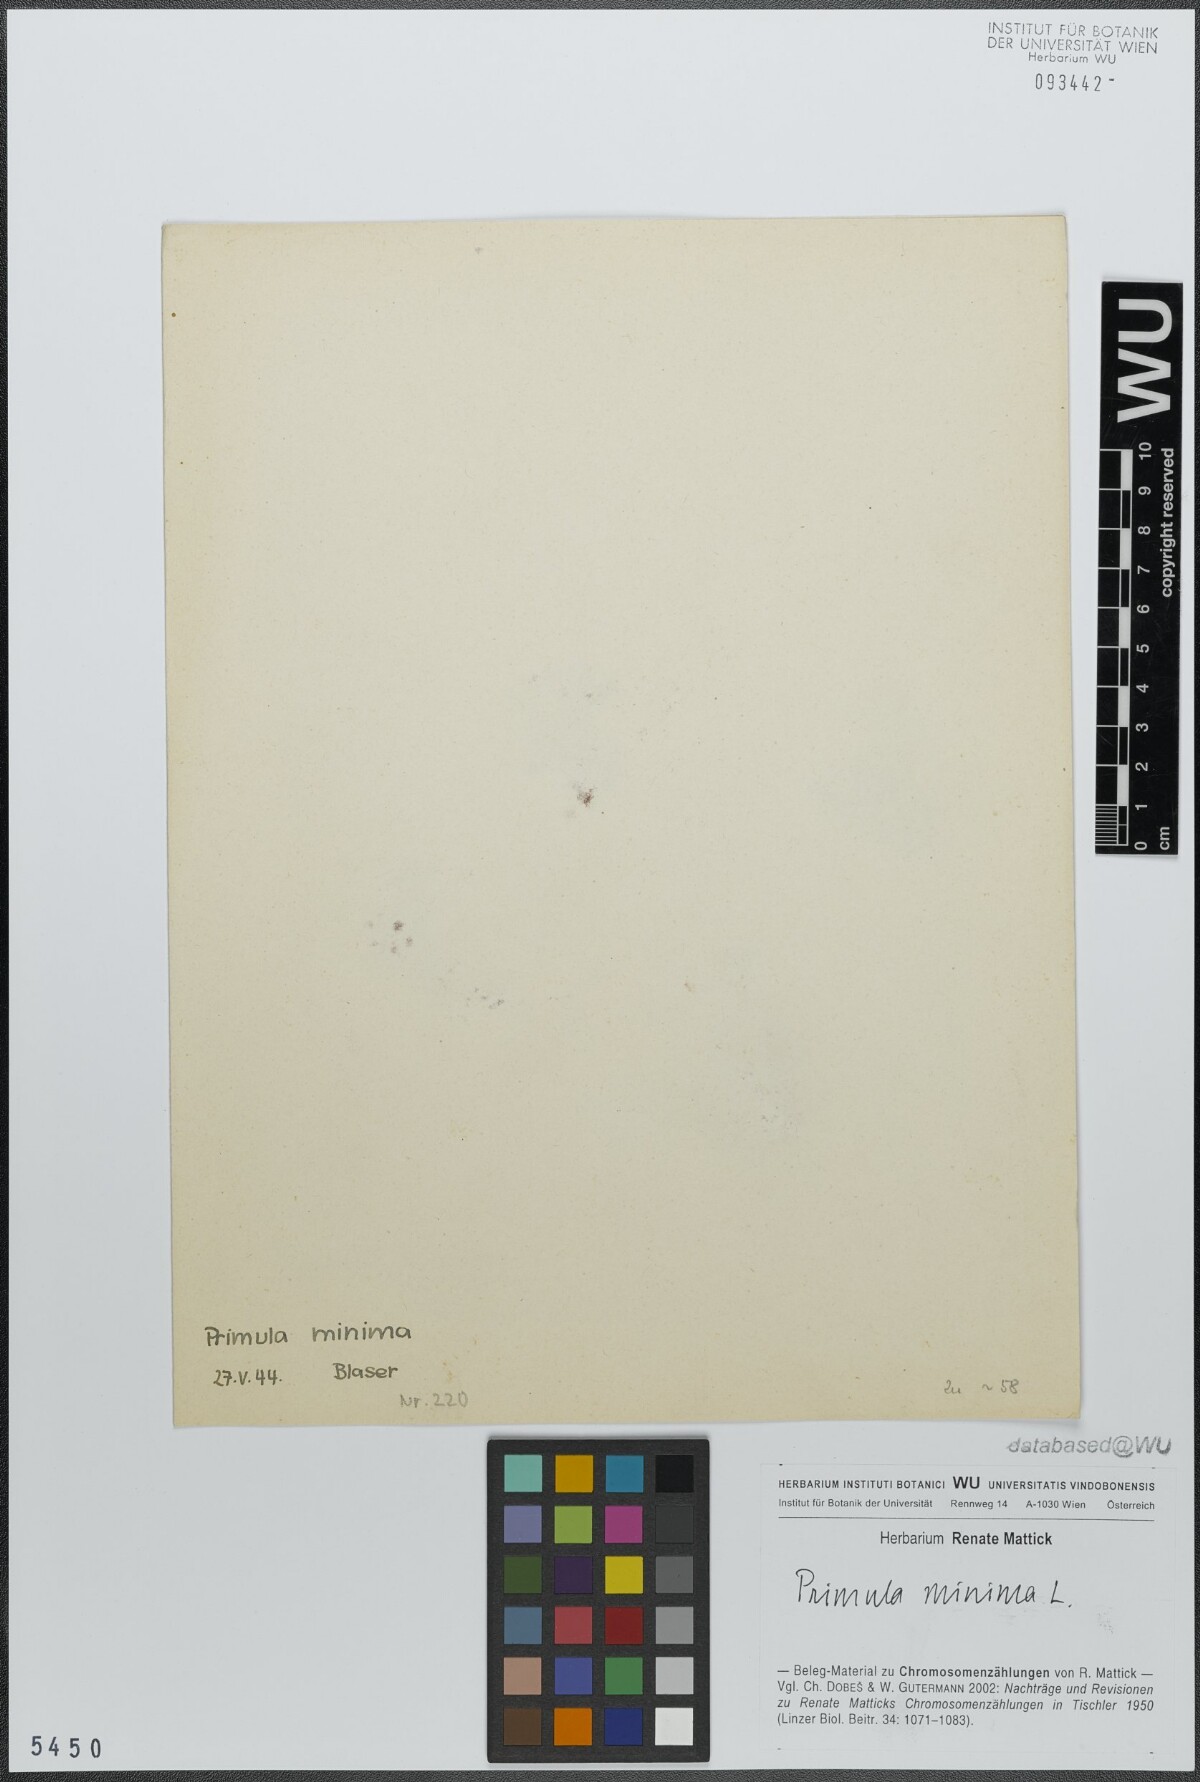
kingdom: Plantae
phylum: Tracheophyta
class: Magnoliopsida
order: Ericales
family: Primulaceae
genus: Primula
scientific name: Primula minima
